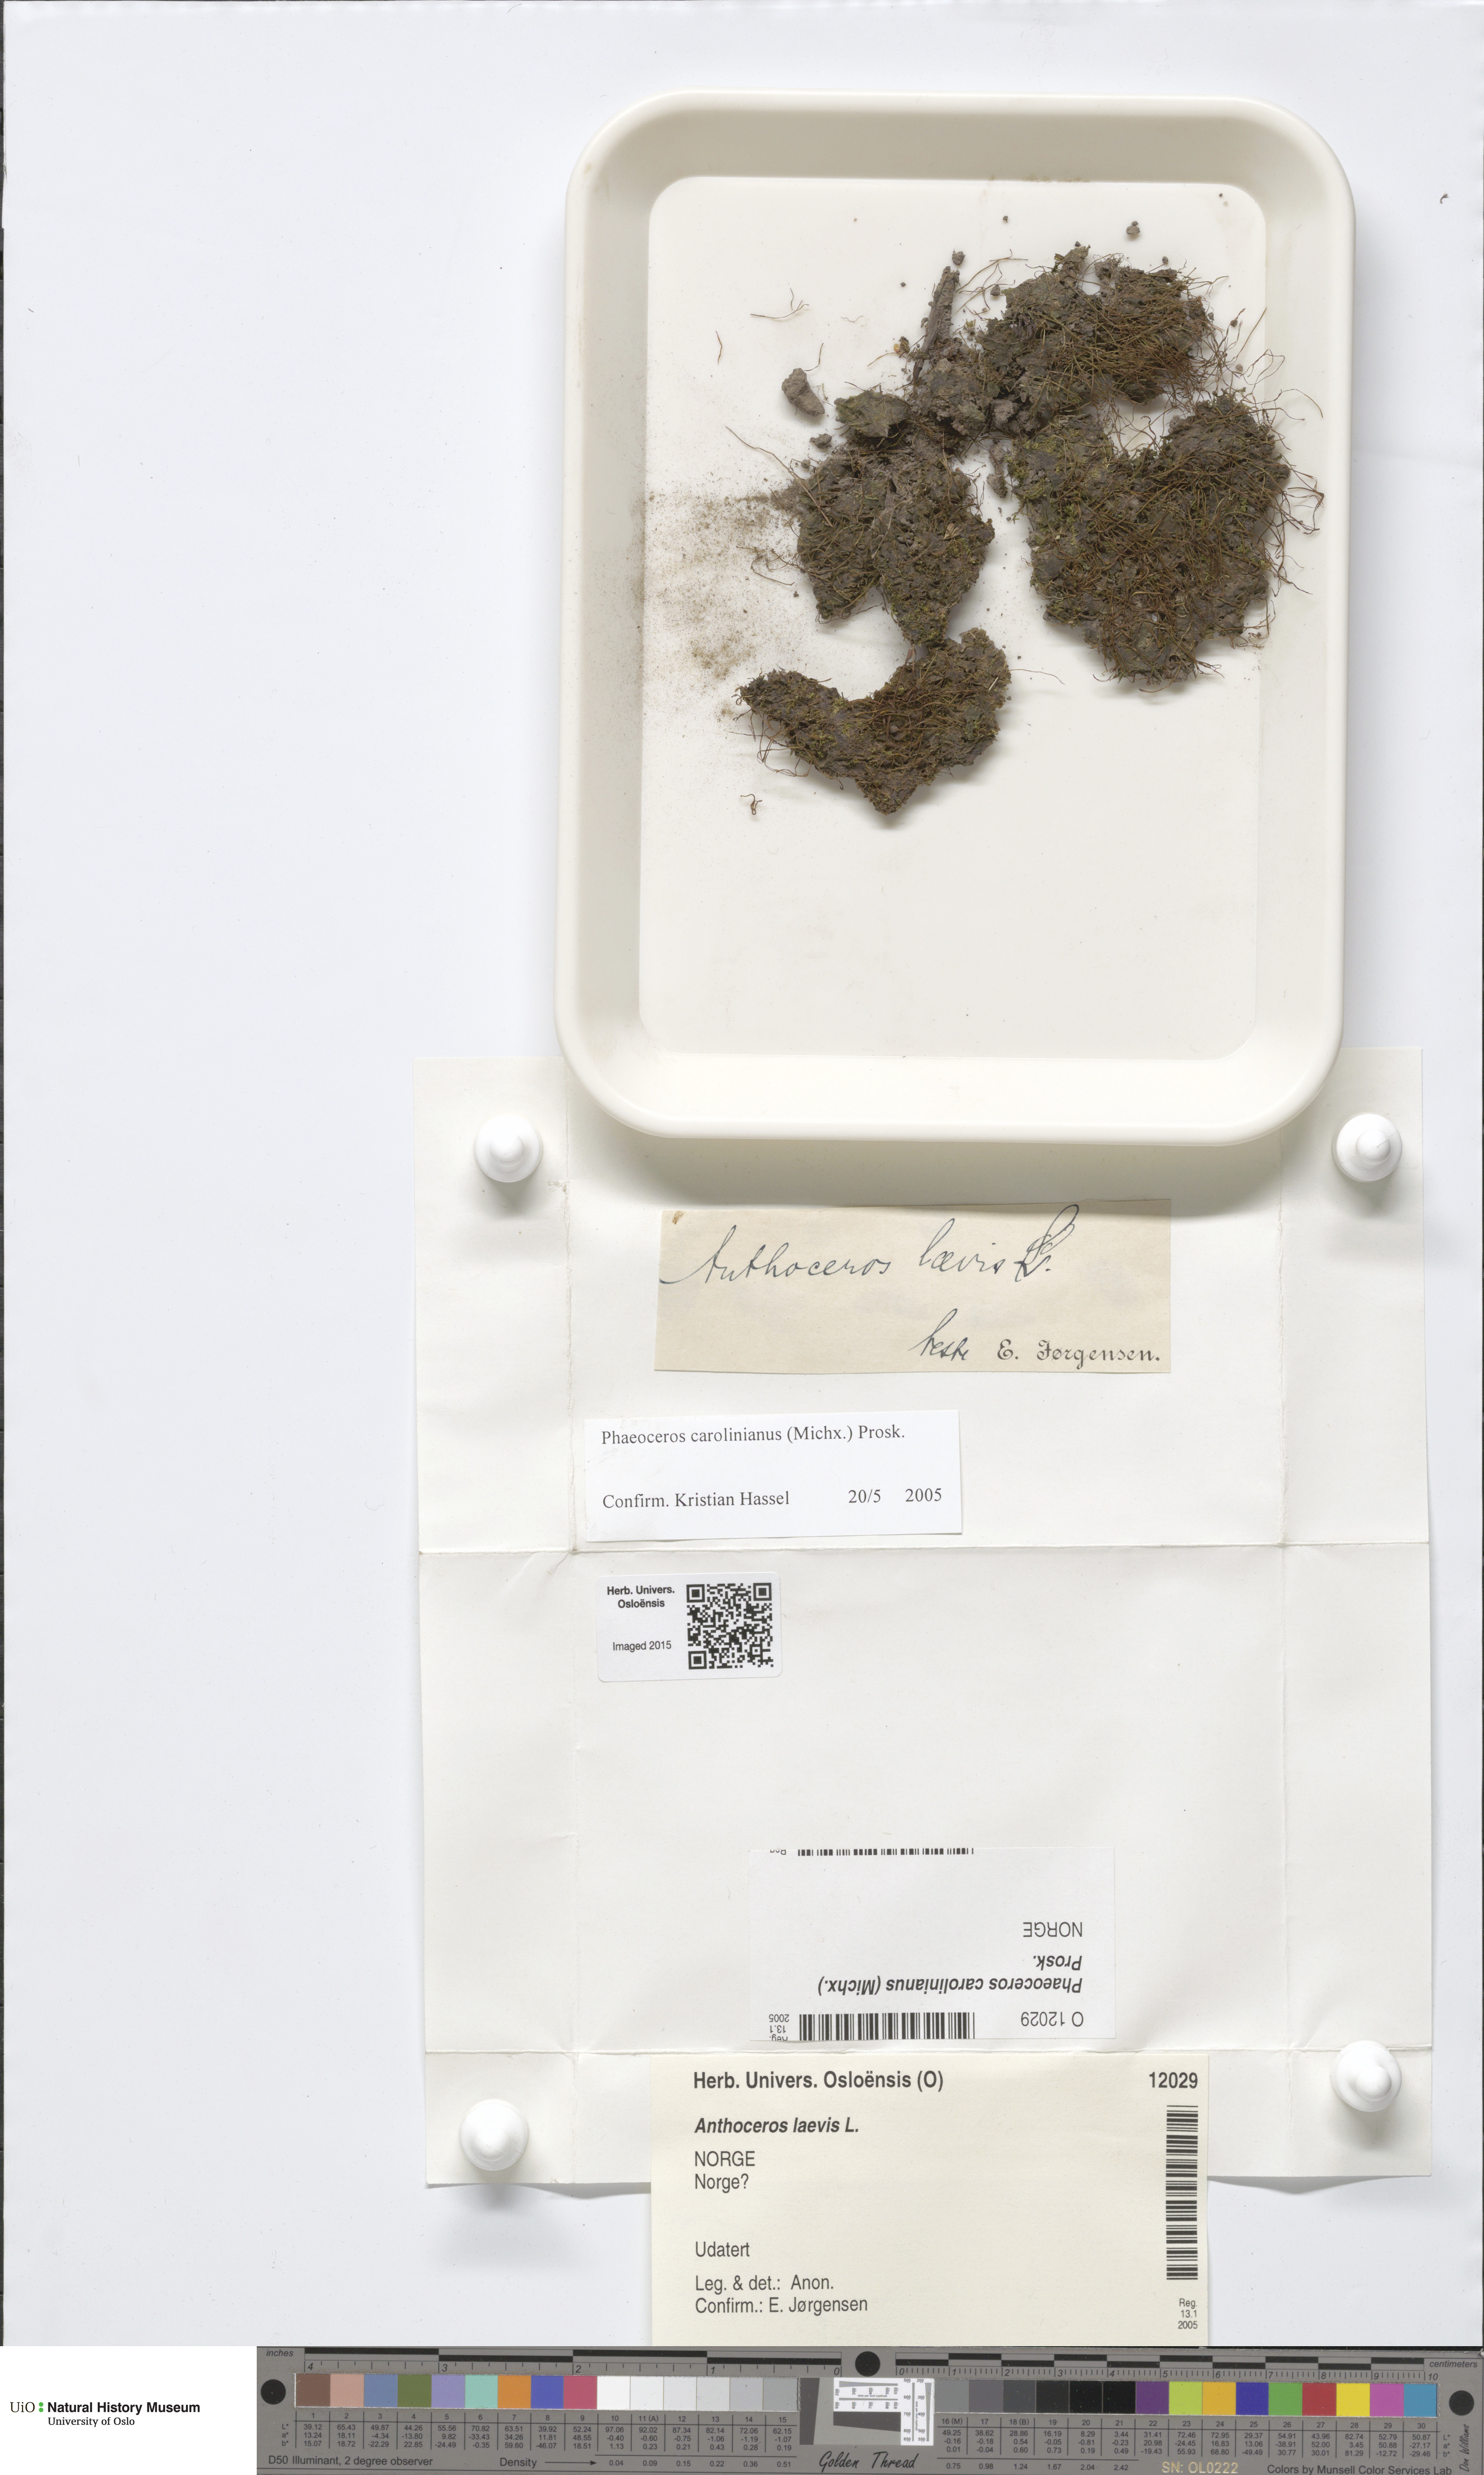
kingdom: Plantae
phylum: Anthocerotophyta
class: Anthocerotopsida
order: Notothyladales
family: Notothyladaceae
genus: Phaeoceros
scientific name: Phaeoceros carolinianus
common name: Carolina hornwort
